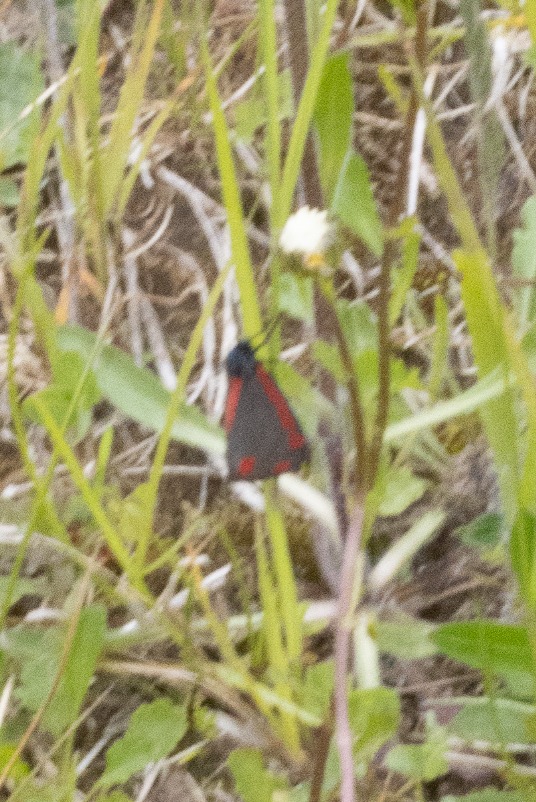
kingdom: Animalia
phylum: Arthropoda
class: Insecta
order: Lepidoptera
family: Erebidae
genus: Tyria
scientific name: Tyria jacobaeae
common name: Blodplet
